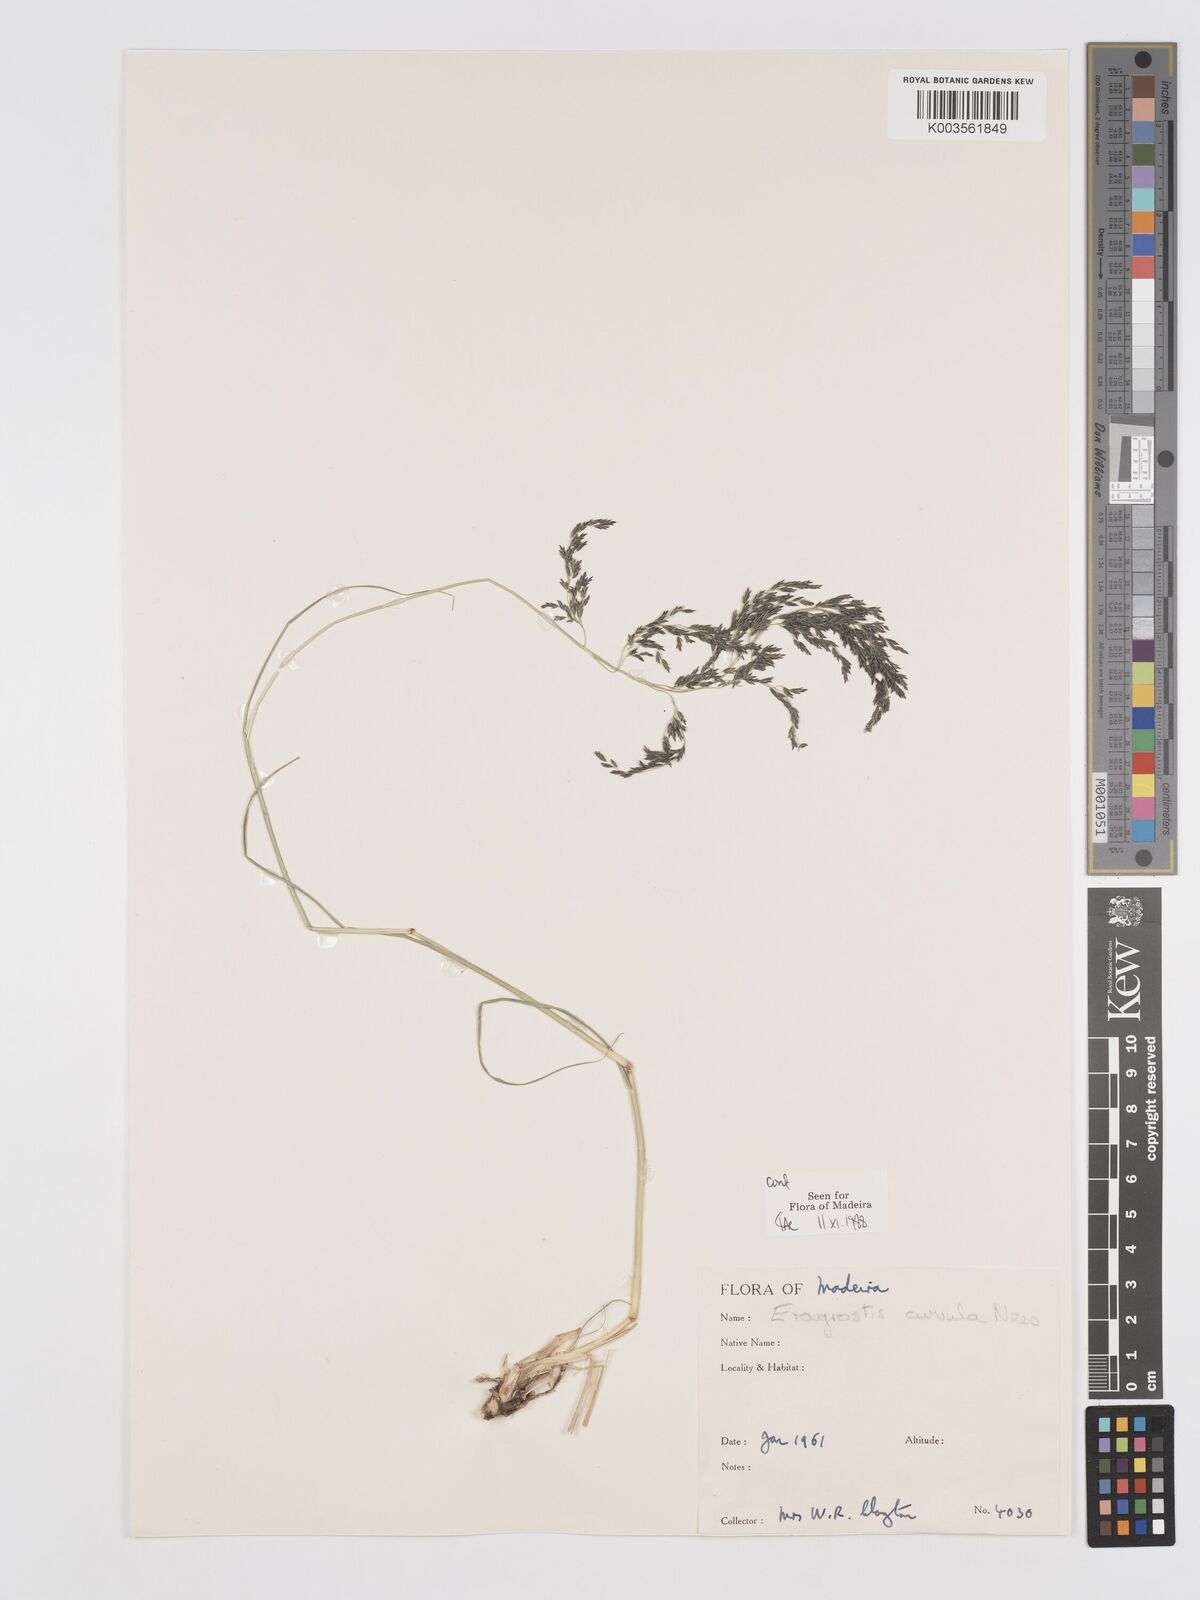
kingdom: Plantae
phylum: Tracheophyta
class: Liliopsida
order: Poales
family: Poaceae
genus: Eragrostis
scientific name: Eragrostis curvula
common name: African love-grass
